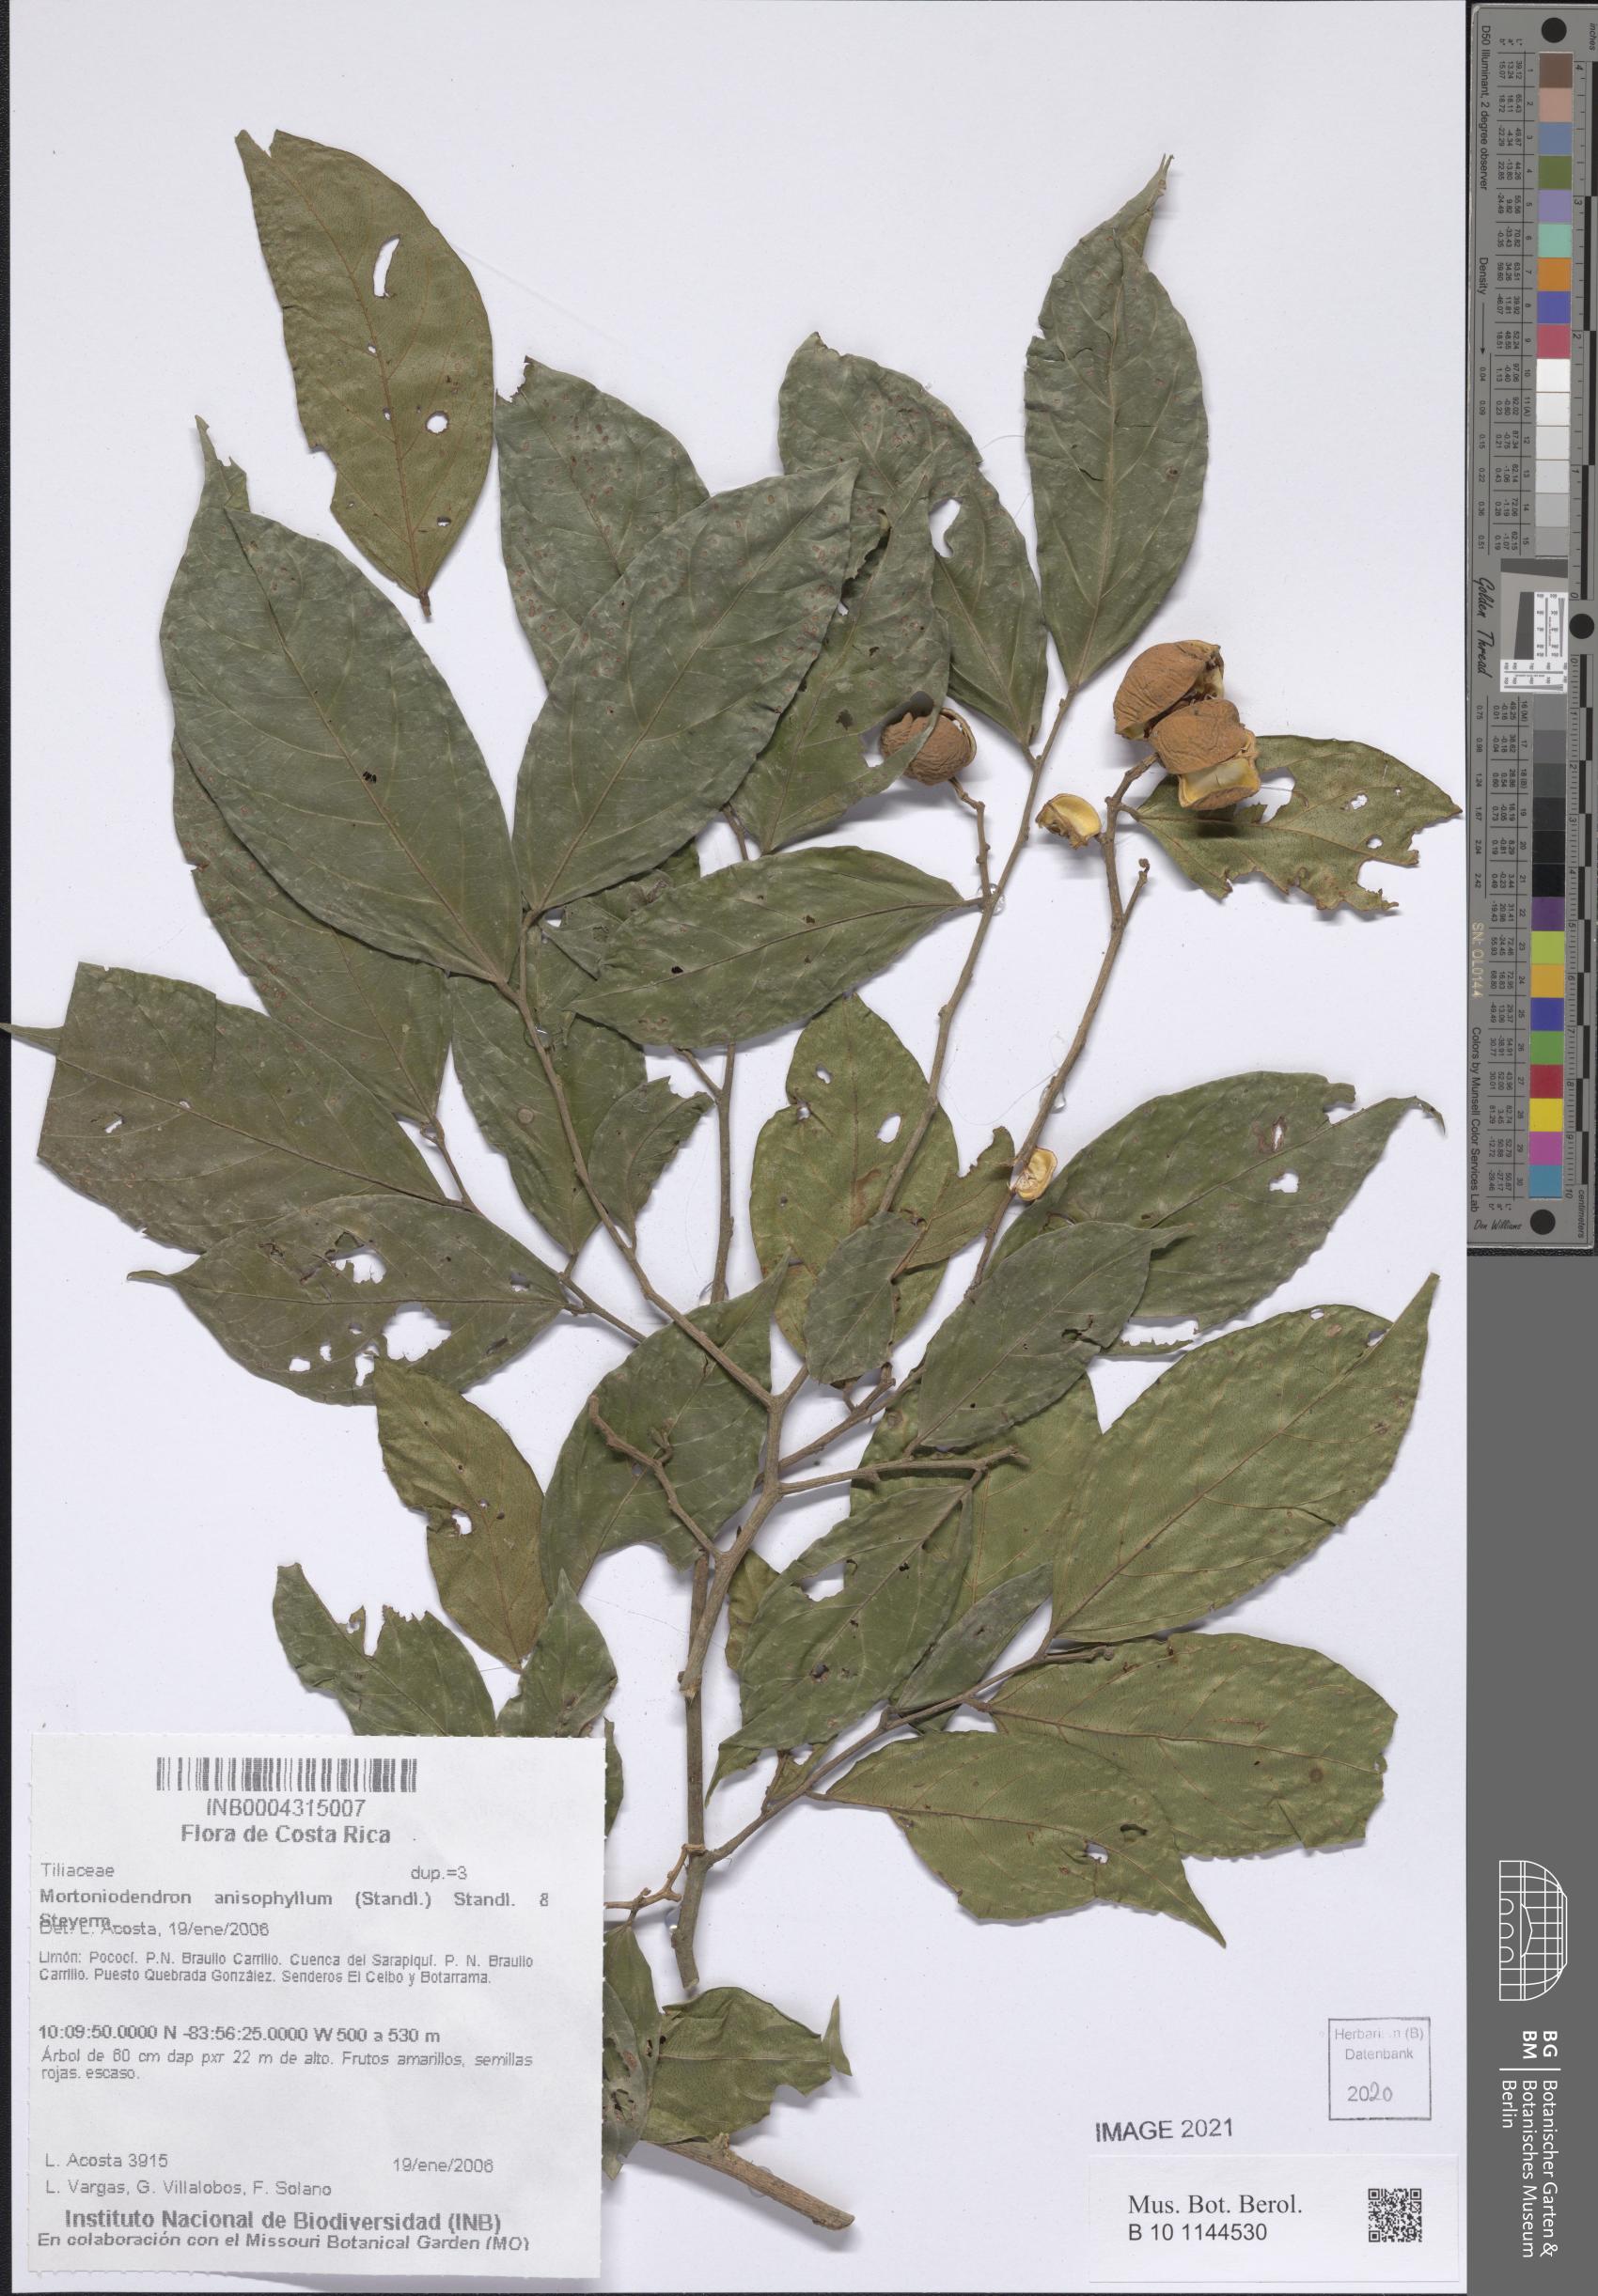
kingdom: Plantae
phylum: Tracheophyta
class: Magnoliopsida
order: Malvales
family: Malvaceae
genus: Mortoniodendron
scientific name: Mortoniodendron anisophyllum
